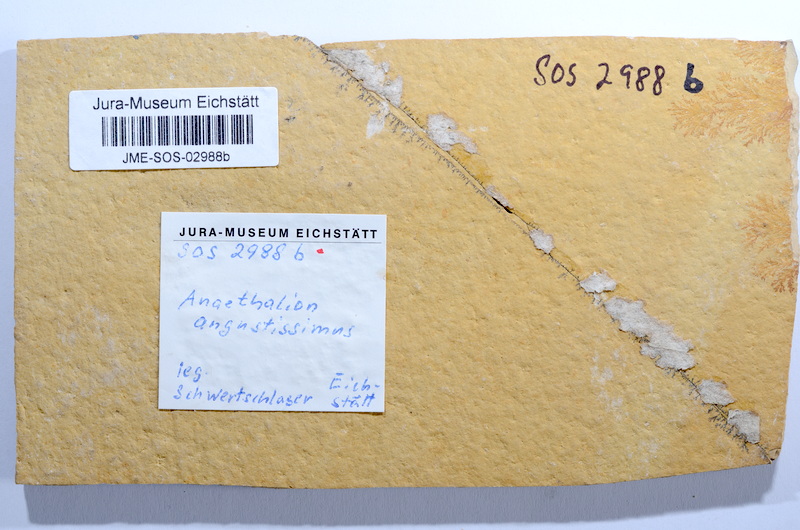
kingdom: Animalia
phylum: Chordata
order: Elopiformes
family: Anaethalionidae
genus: Anaethalion
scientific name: Anaethalion angustissimus
